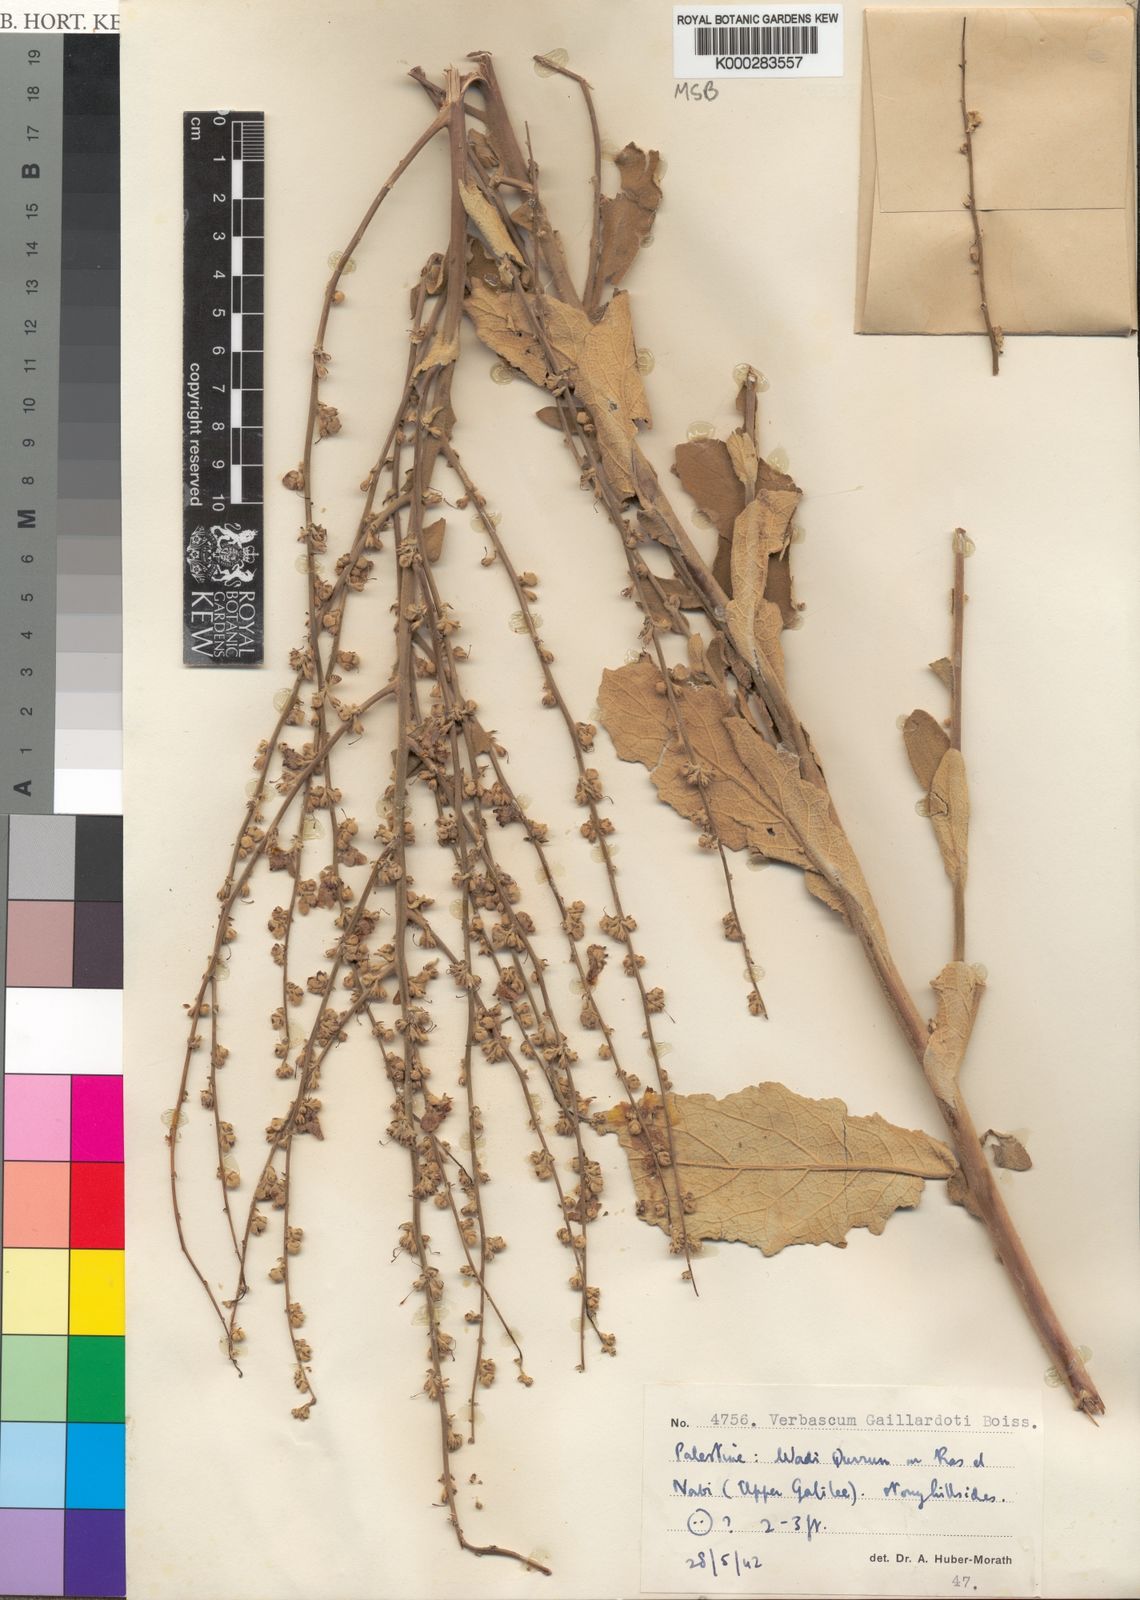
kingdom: Plantae
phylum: Tracheophyta
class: Magnoliopsida
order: Lamiales
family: Scrophulariaceae
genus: Verbascum
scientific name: Verbascum gaillardotii
